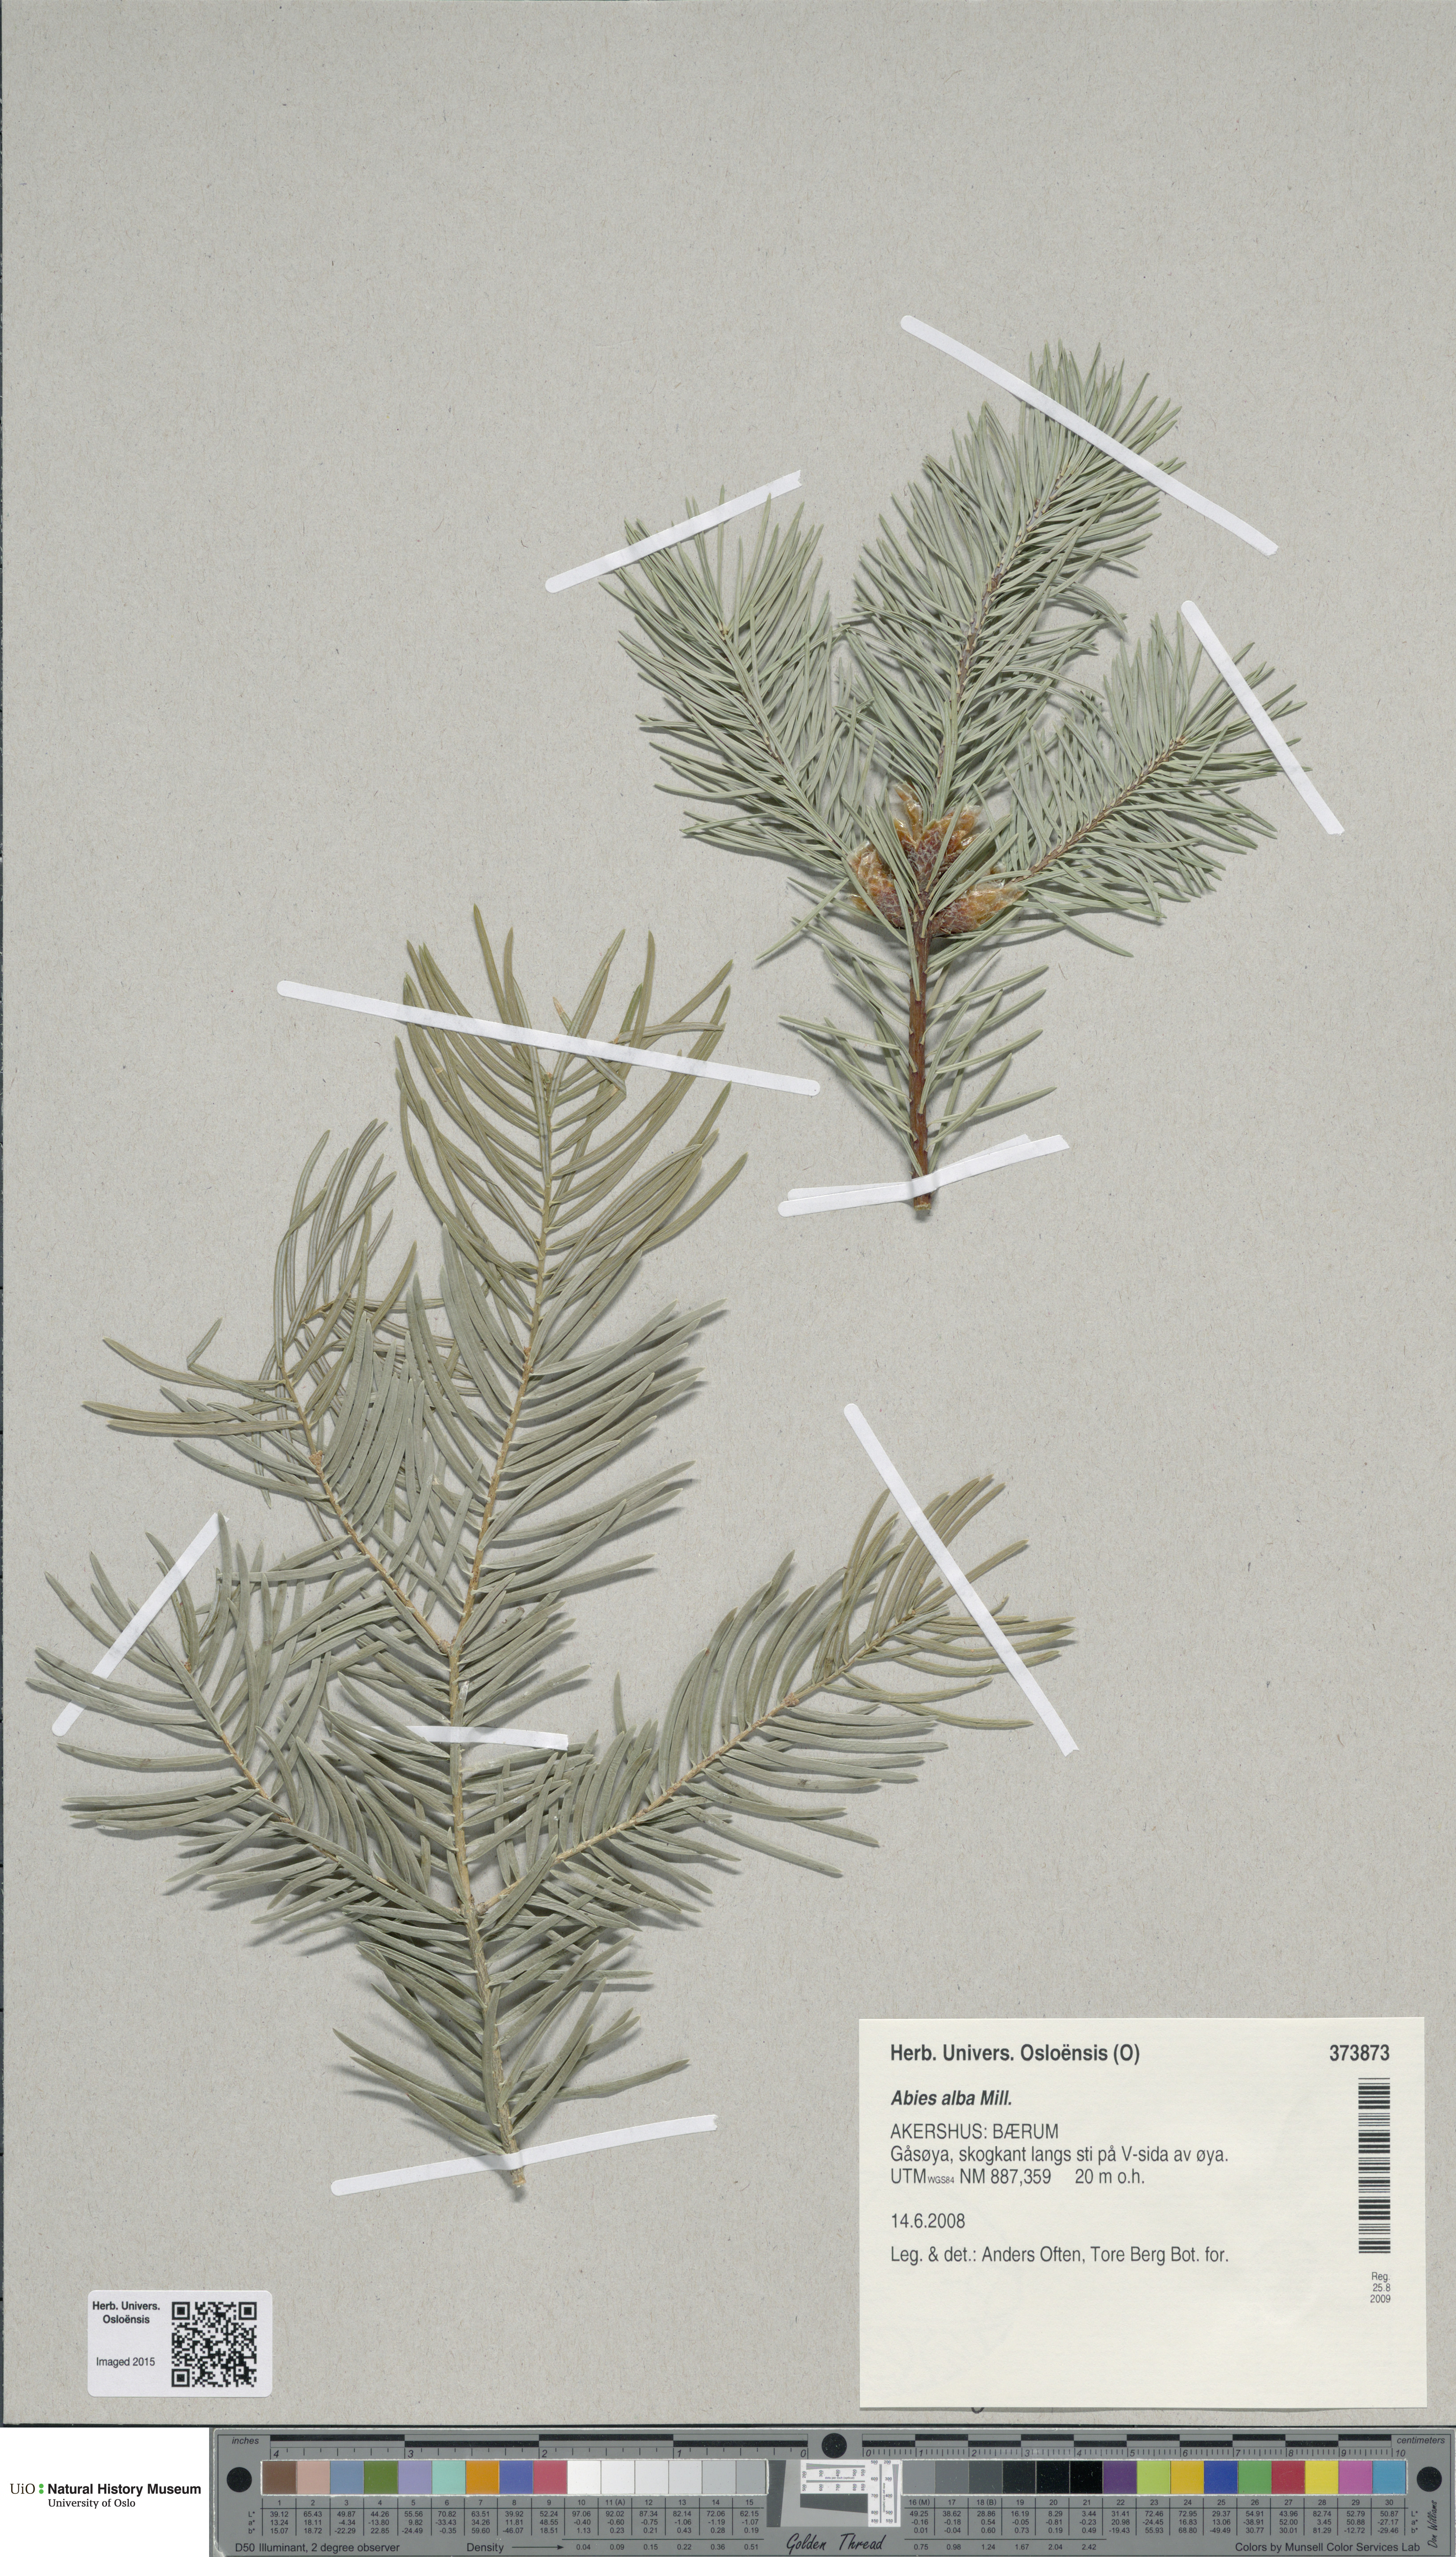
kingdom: Plantae
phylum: Tracheophyta
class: Pinopsida
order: Pinales
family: Pinaceae
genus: Abies
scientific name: Abies concolor
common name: Colorado fir
